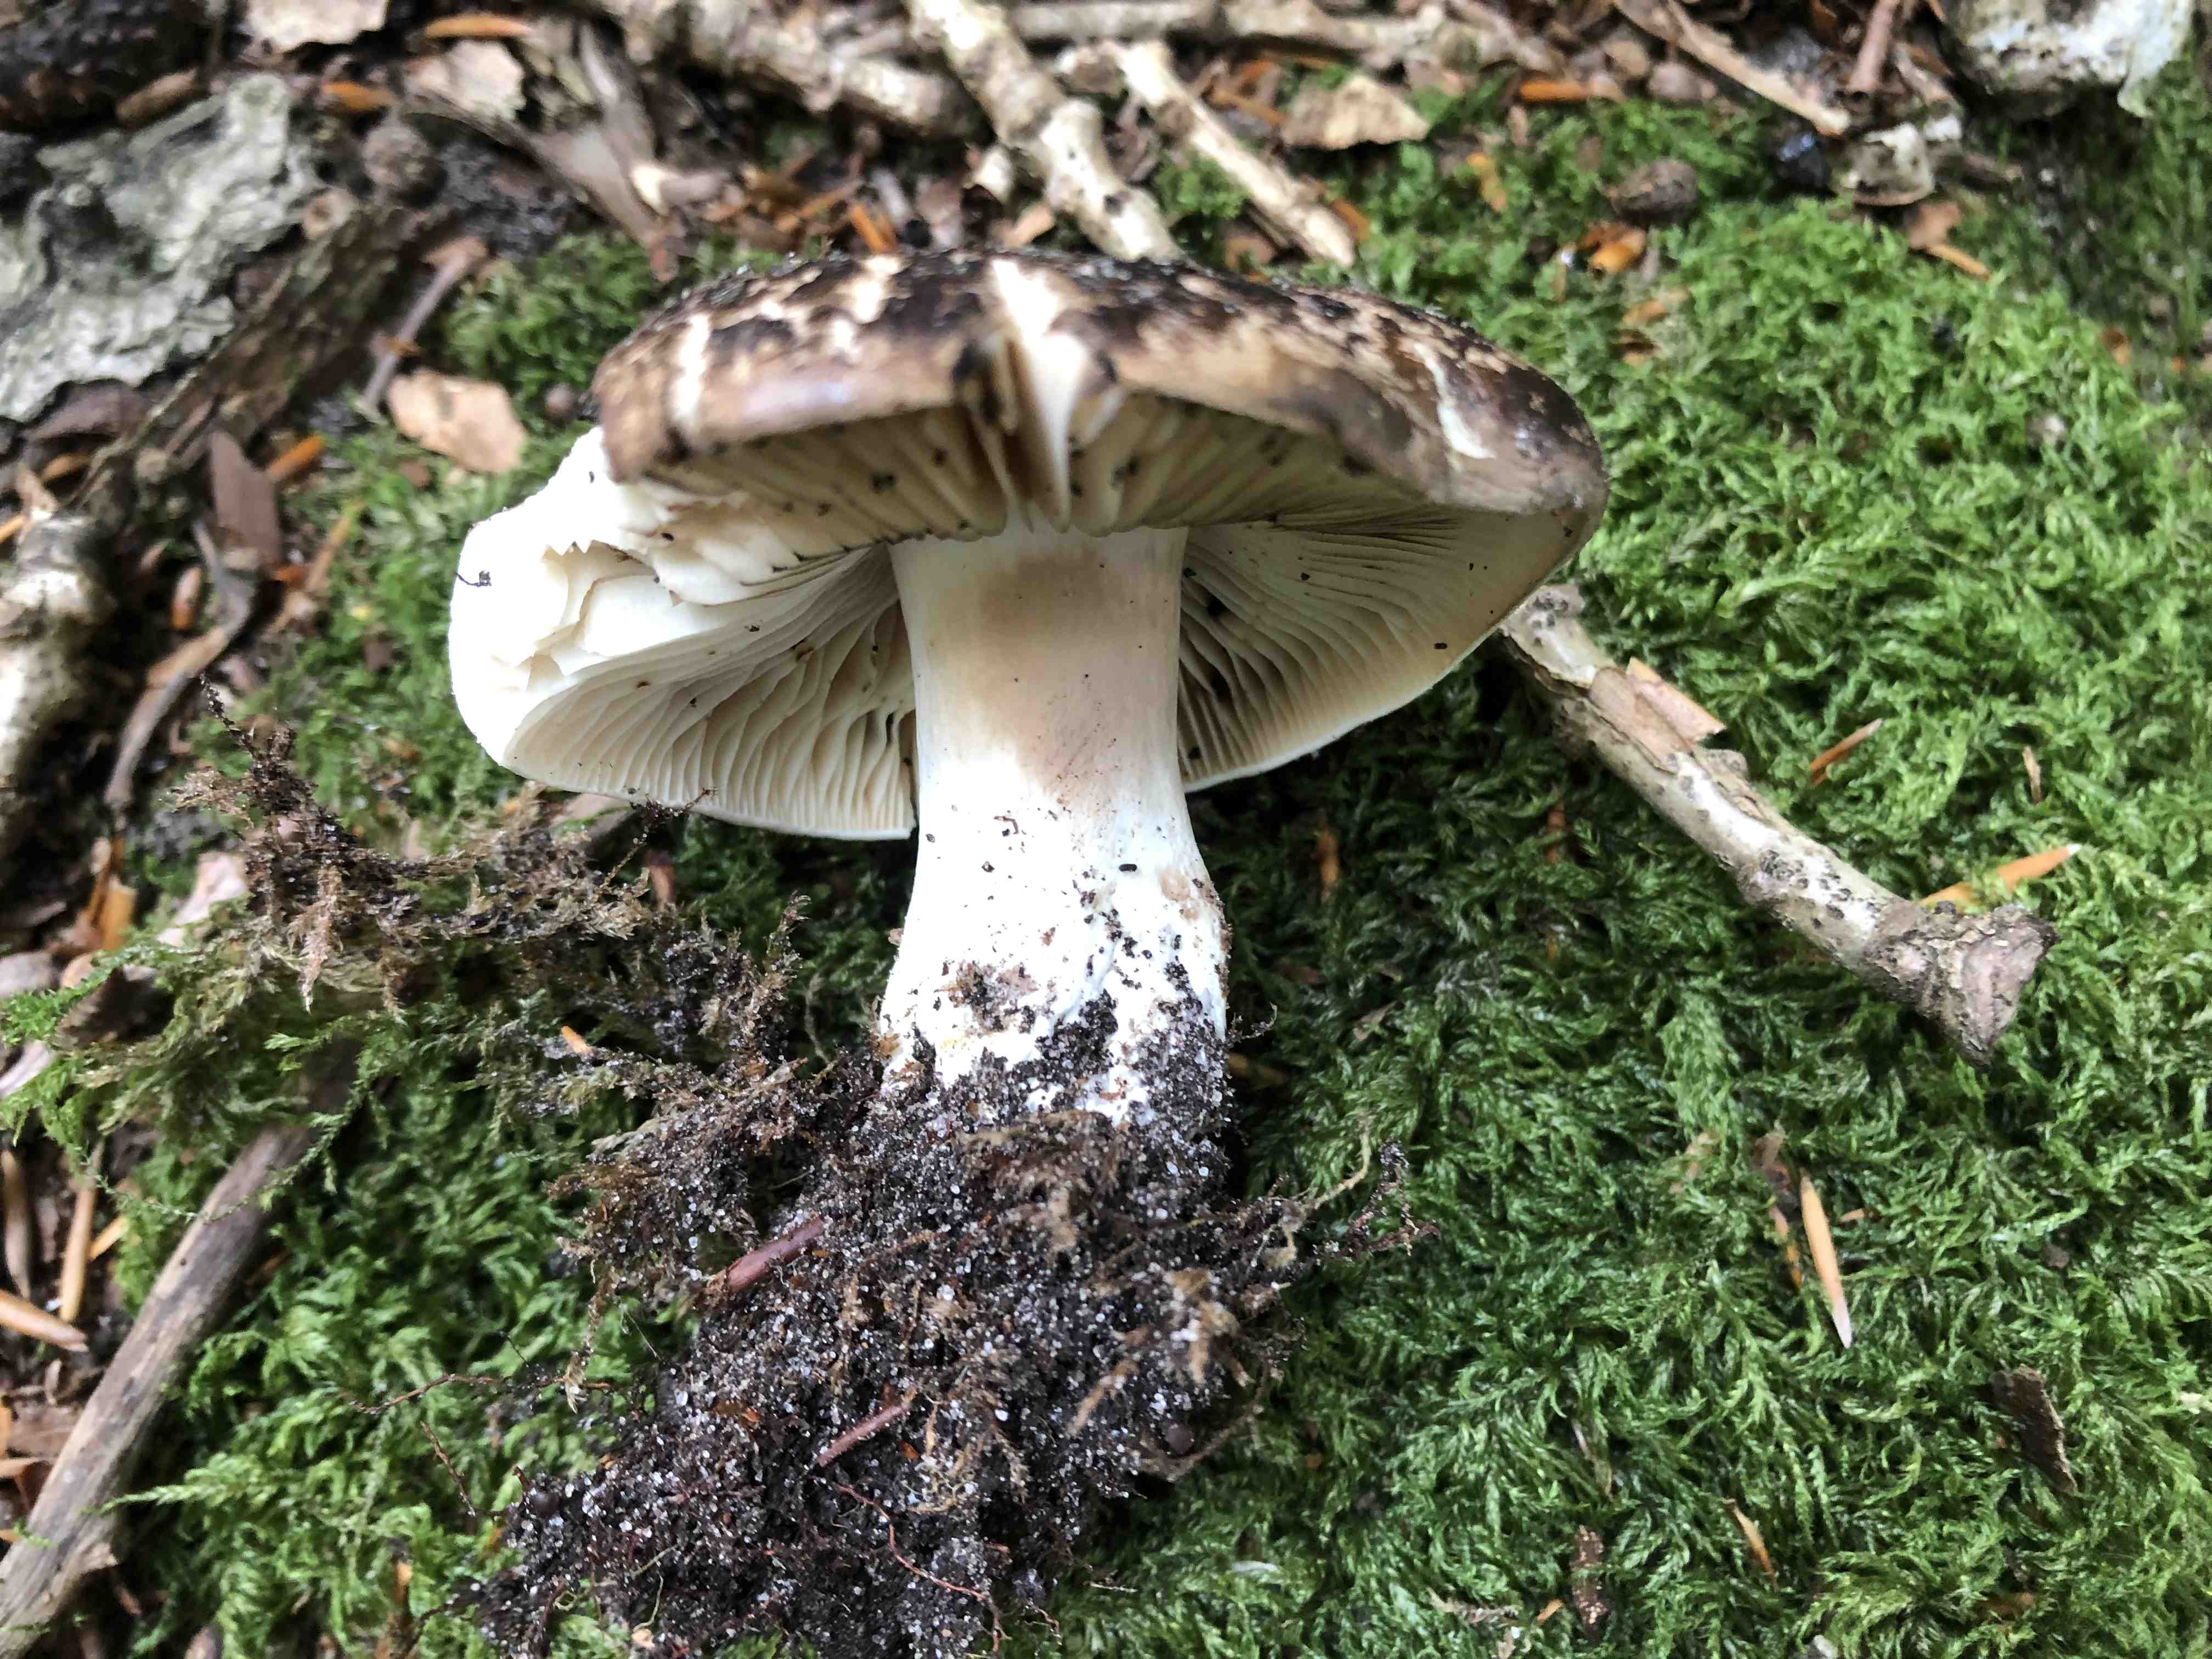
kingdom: Fungi
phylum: Basidiomycota
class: Agaricomycetes
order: Russulales
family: Russulaceae
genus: Russula
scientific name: Russula adusta
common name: sværtende skørhat
